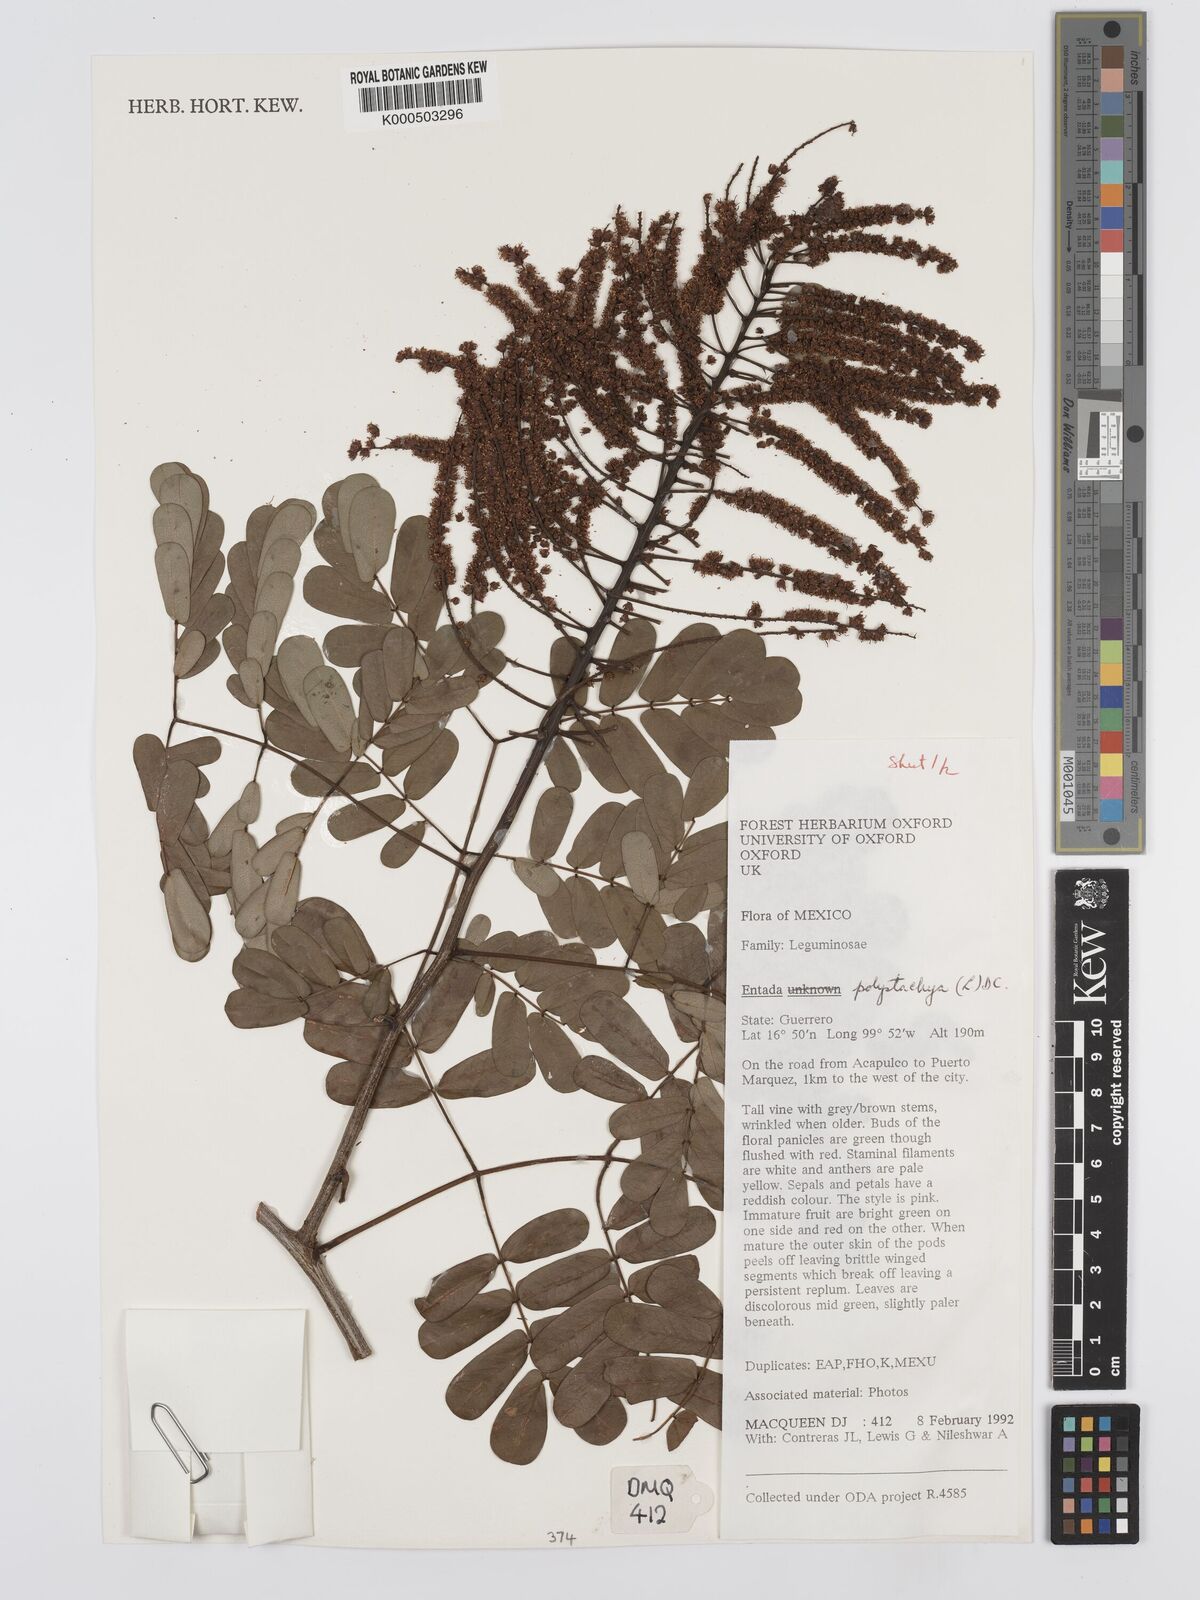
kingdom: Plantae
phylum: Tracheophyta
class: Magnoliopsida
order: Fabales
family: Fabaceae
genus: Entada
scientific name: Entada polystachya
